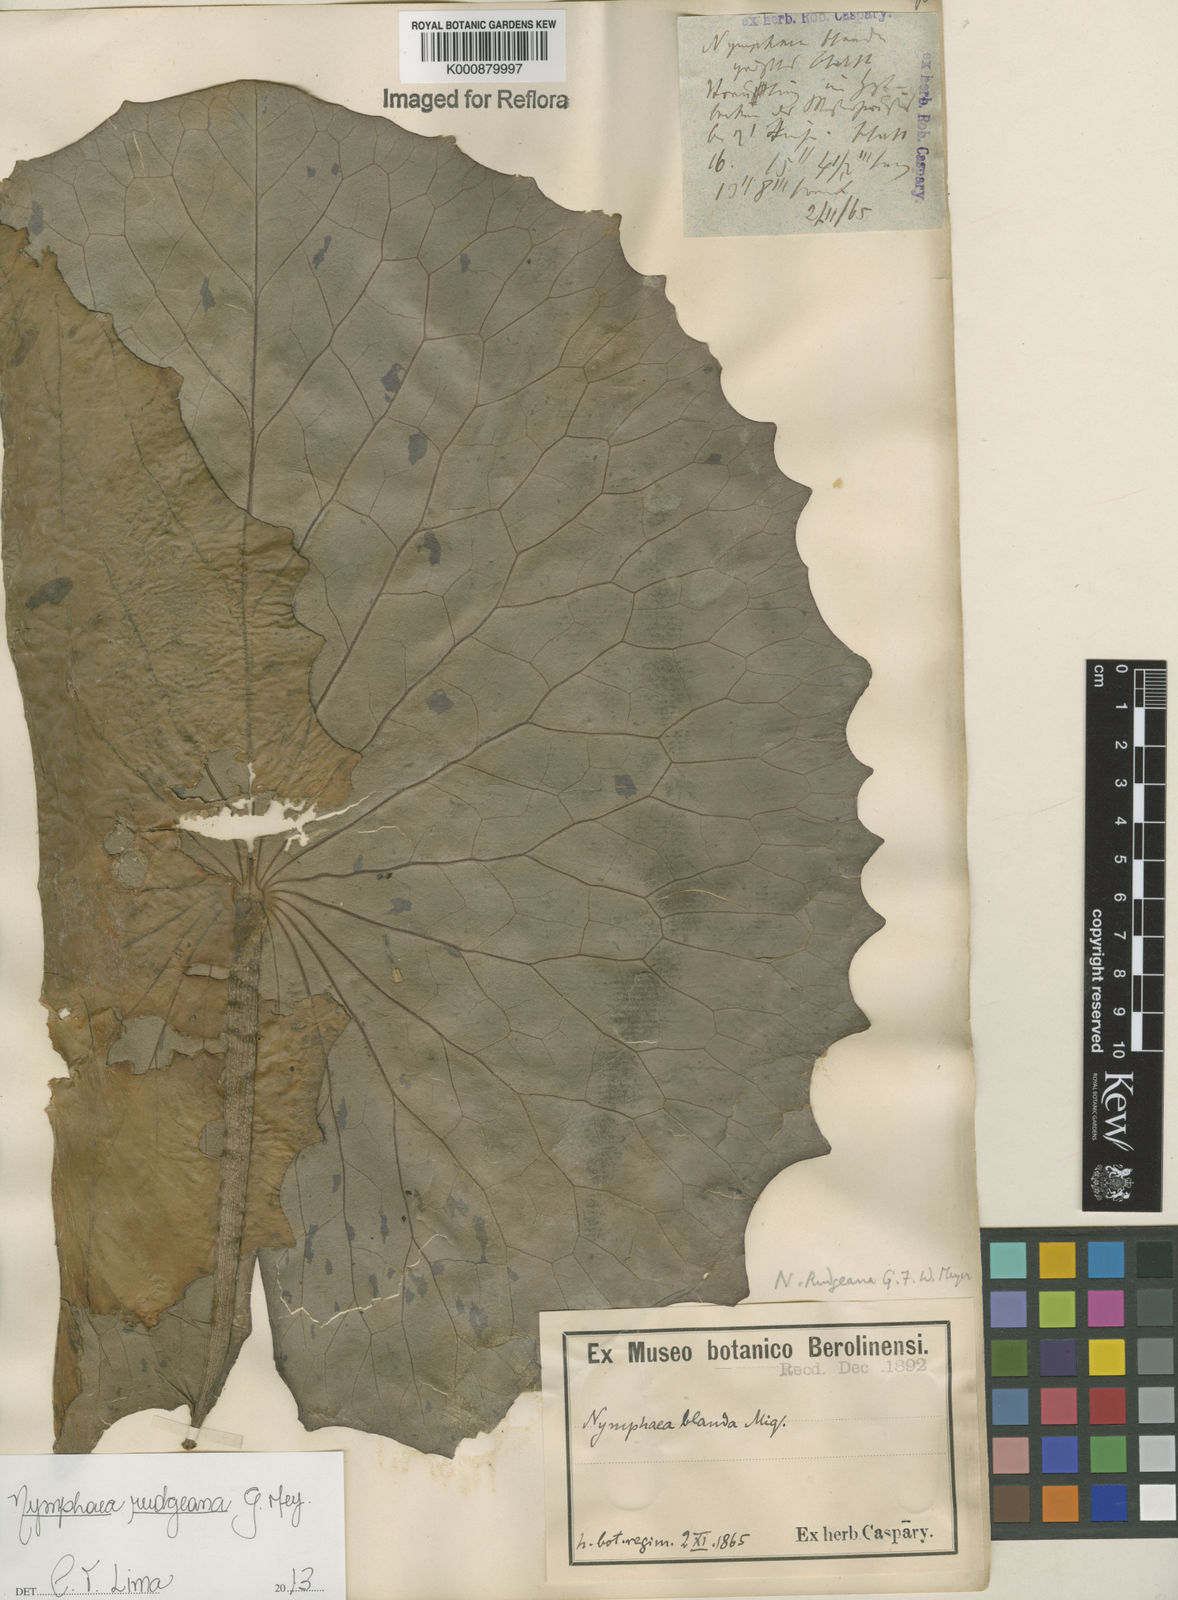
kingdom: Plantae
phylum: Tracheophyta
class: Magnoliopsida
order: Nymphaeales
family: Nymphaeaceae
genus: Nymphaea
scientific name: Nymphaea rudgeana
